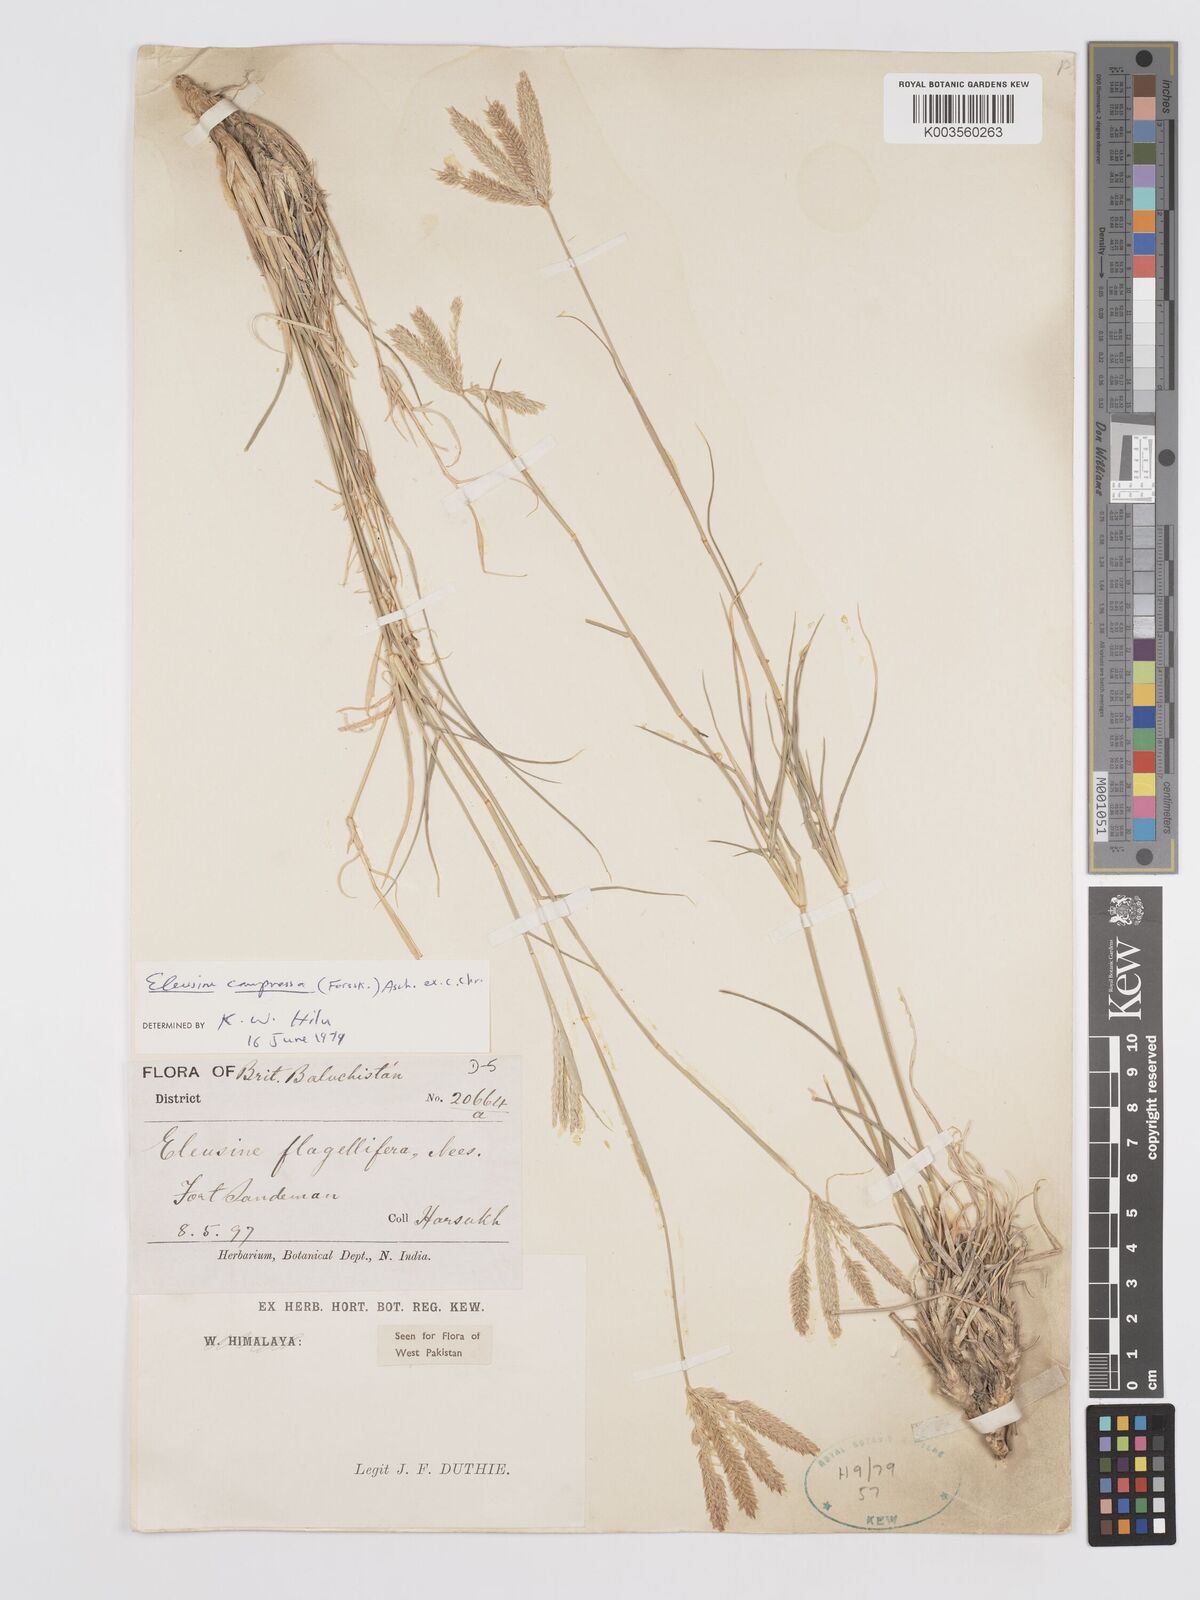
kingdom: Plantae
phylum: Tracheophyta
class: Liliopsida
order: Poales
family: Poaceae
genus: Chloris
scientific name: Chloris flagellifera
